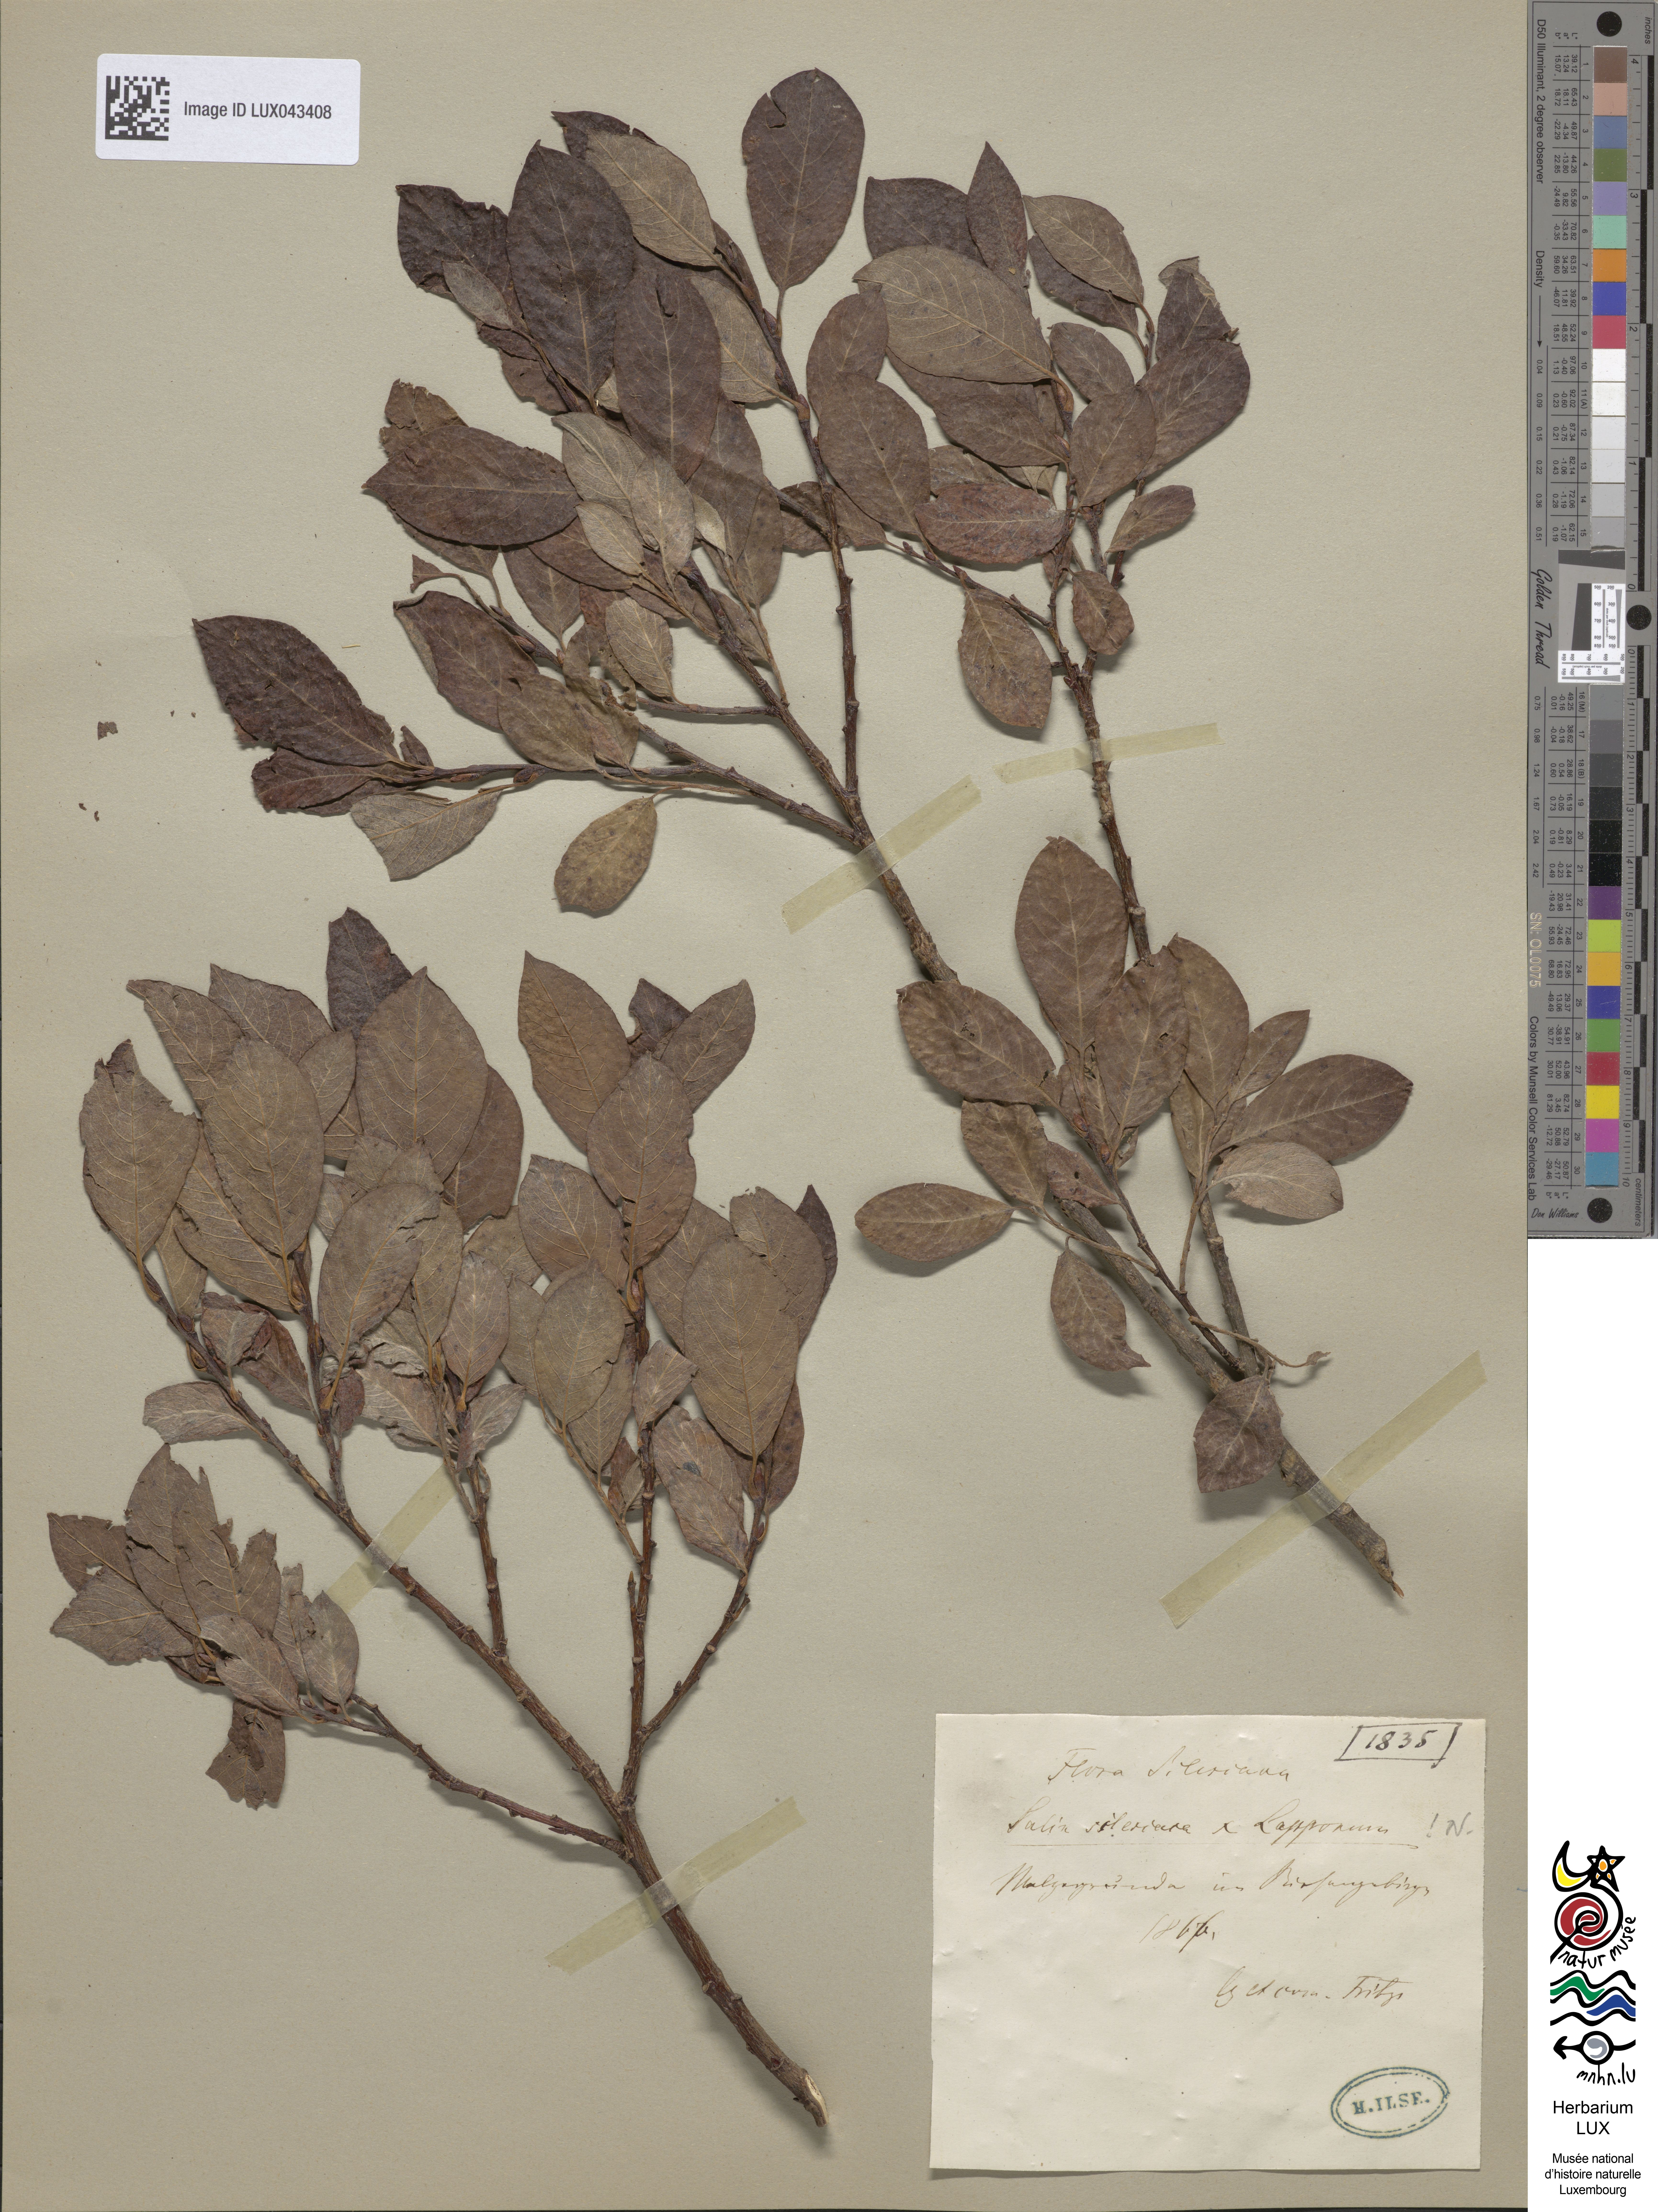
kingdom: Plantae
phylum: Tracheophyta
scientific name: Tracheophyta
